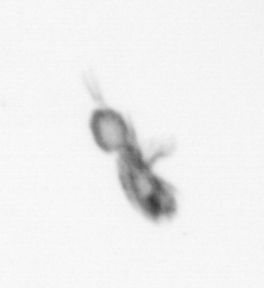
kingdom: Animalia
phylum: Arthropoda
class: Copepoda
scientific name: Copepoda
